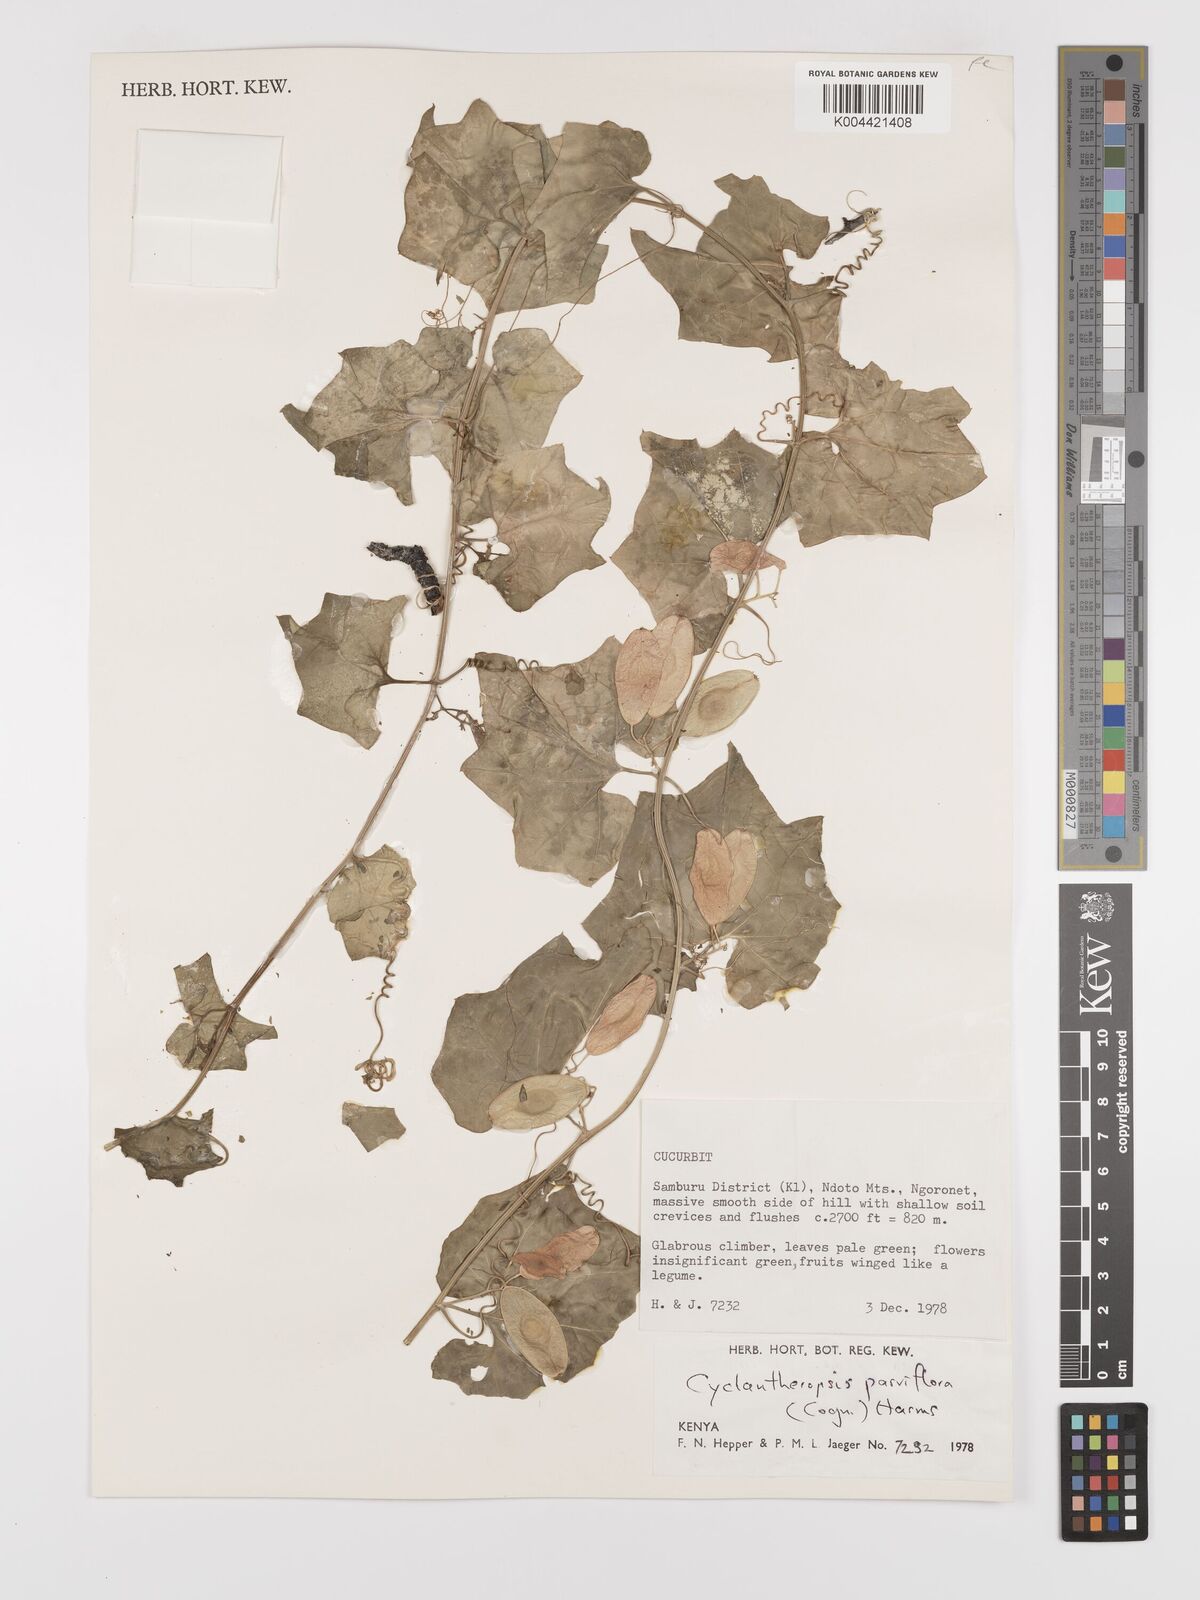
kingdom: Plantae
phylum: Tracheophyta
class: Magnoliopsida
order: Cucurbitales
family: Cucurbitaceae
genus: Cyclantheropsis
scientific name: Cyclantheropsis parviflora
